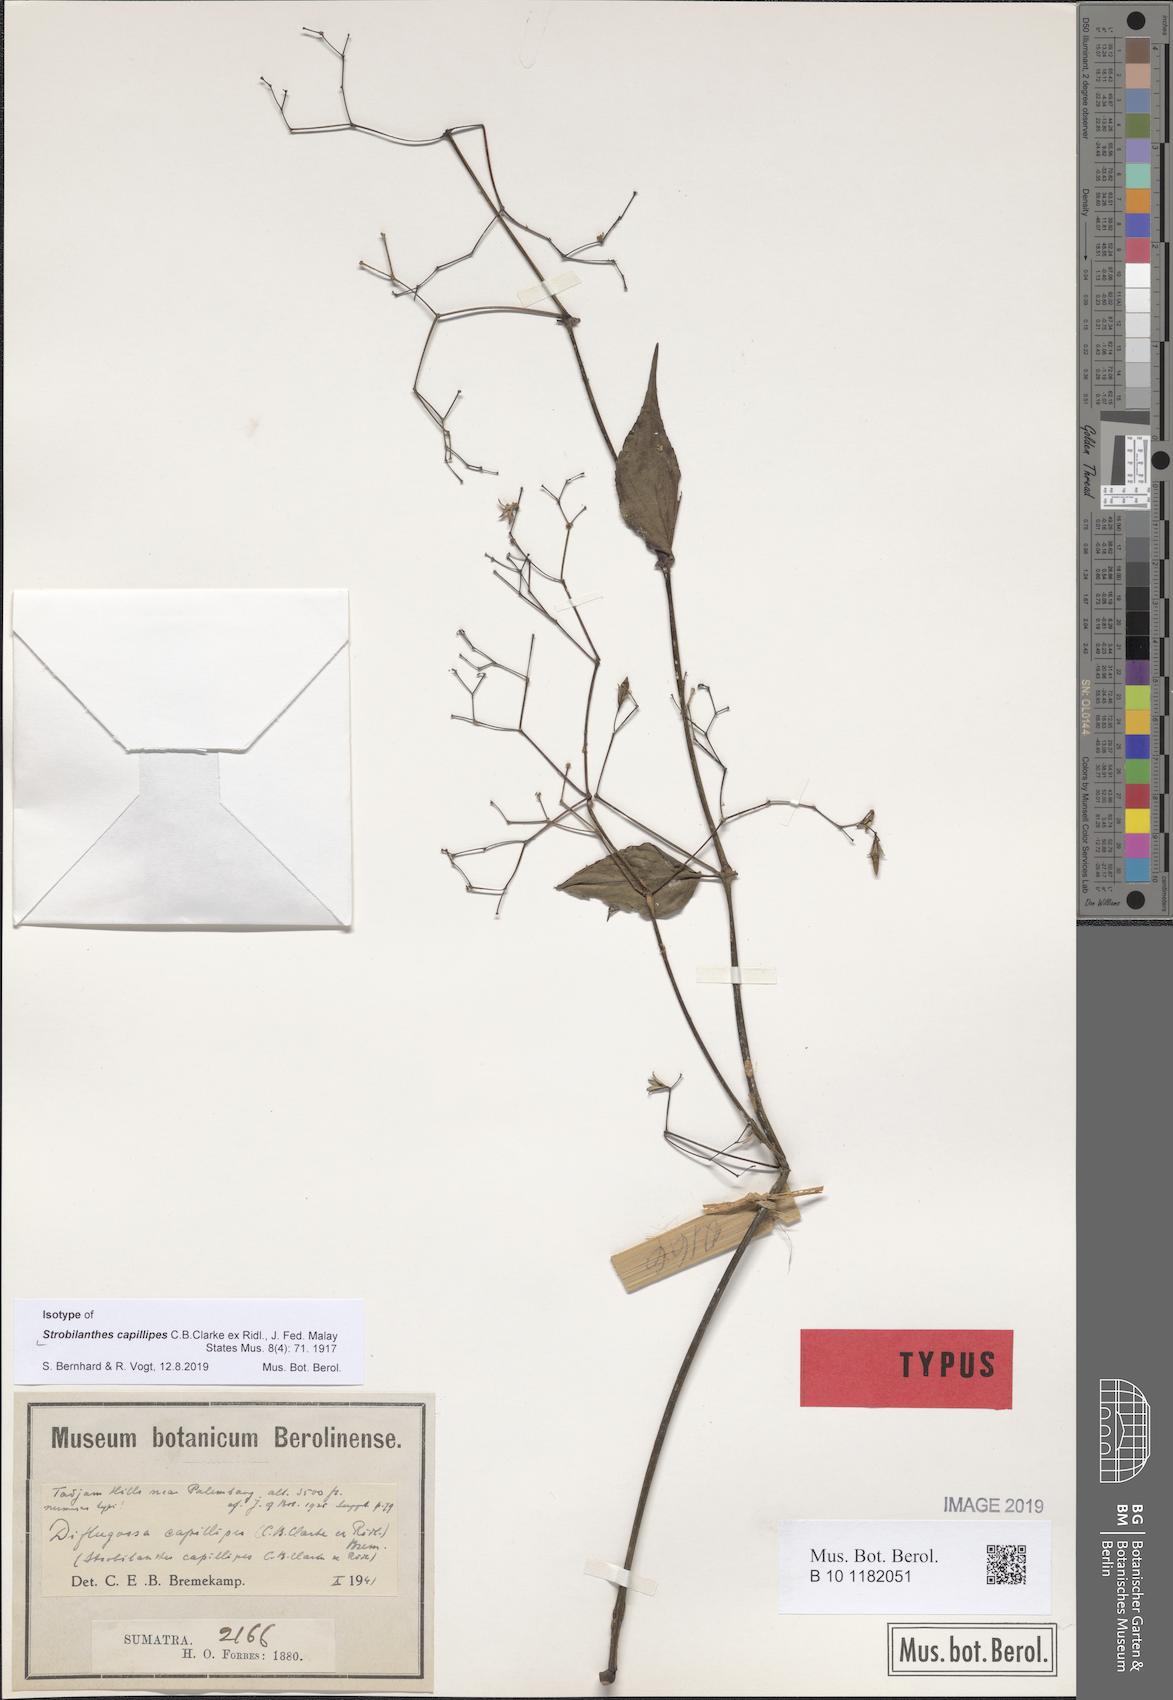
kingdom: Plantae
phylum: Tracheophyta
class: Magnoliopsida
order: Lamiales
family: Acanthaceae
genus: Strobilanthes
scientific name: Strobilanthes capillipes
